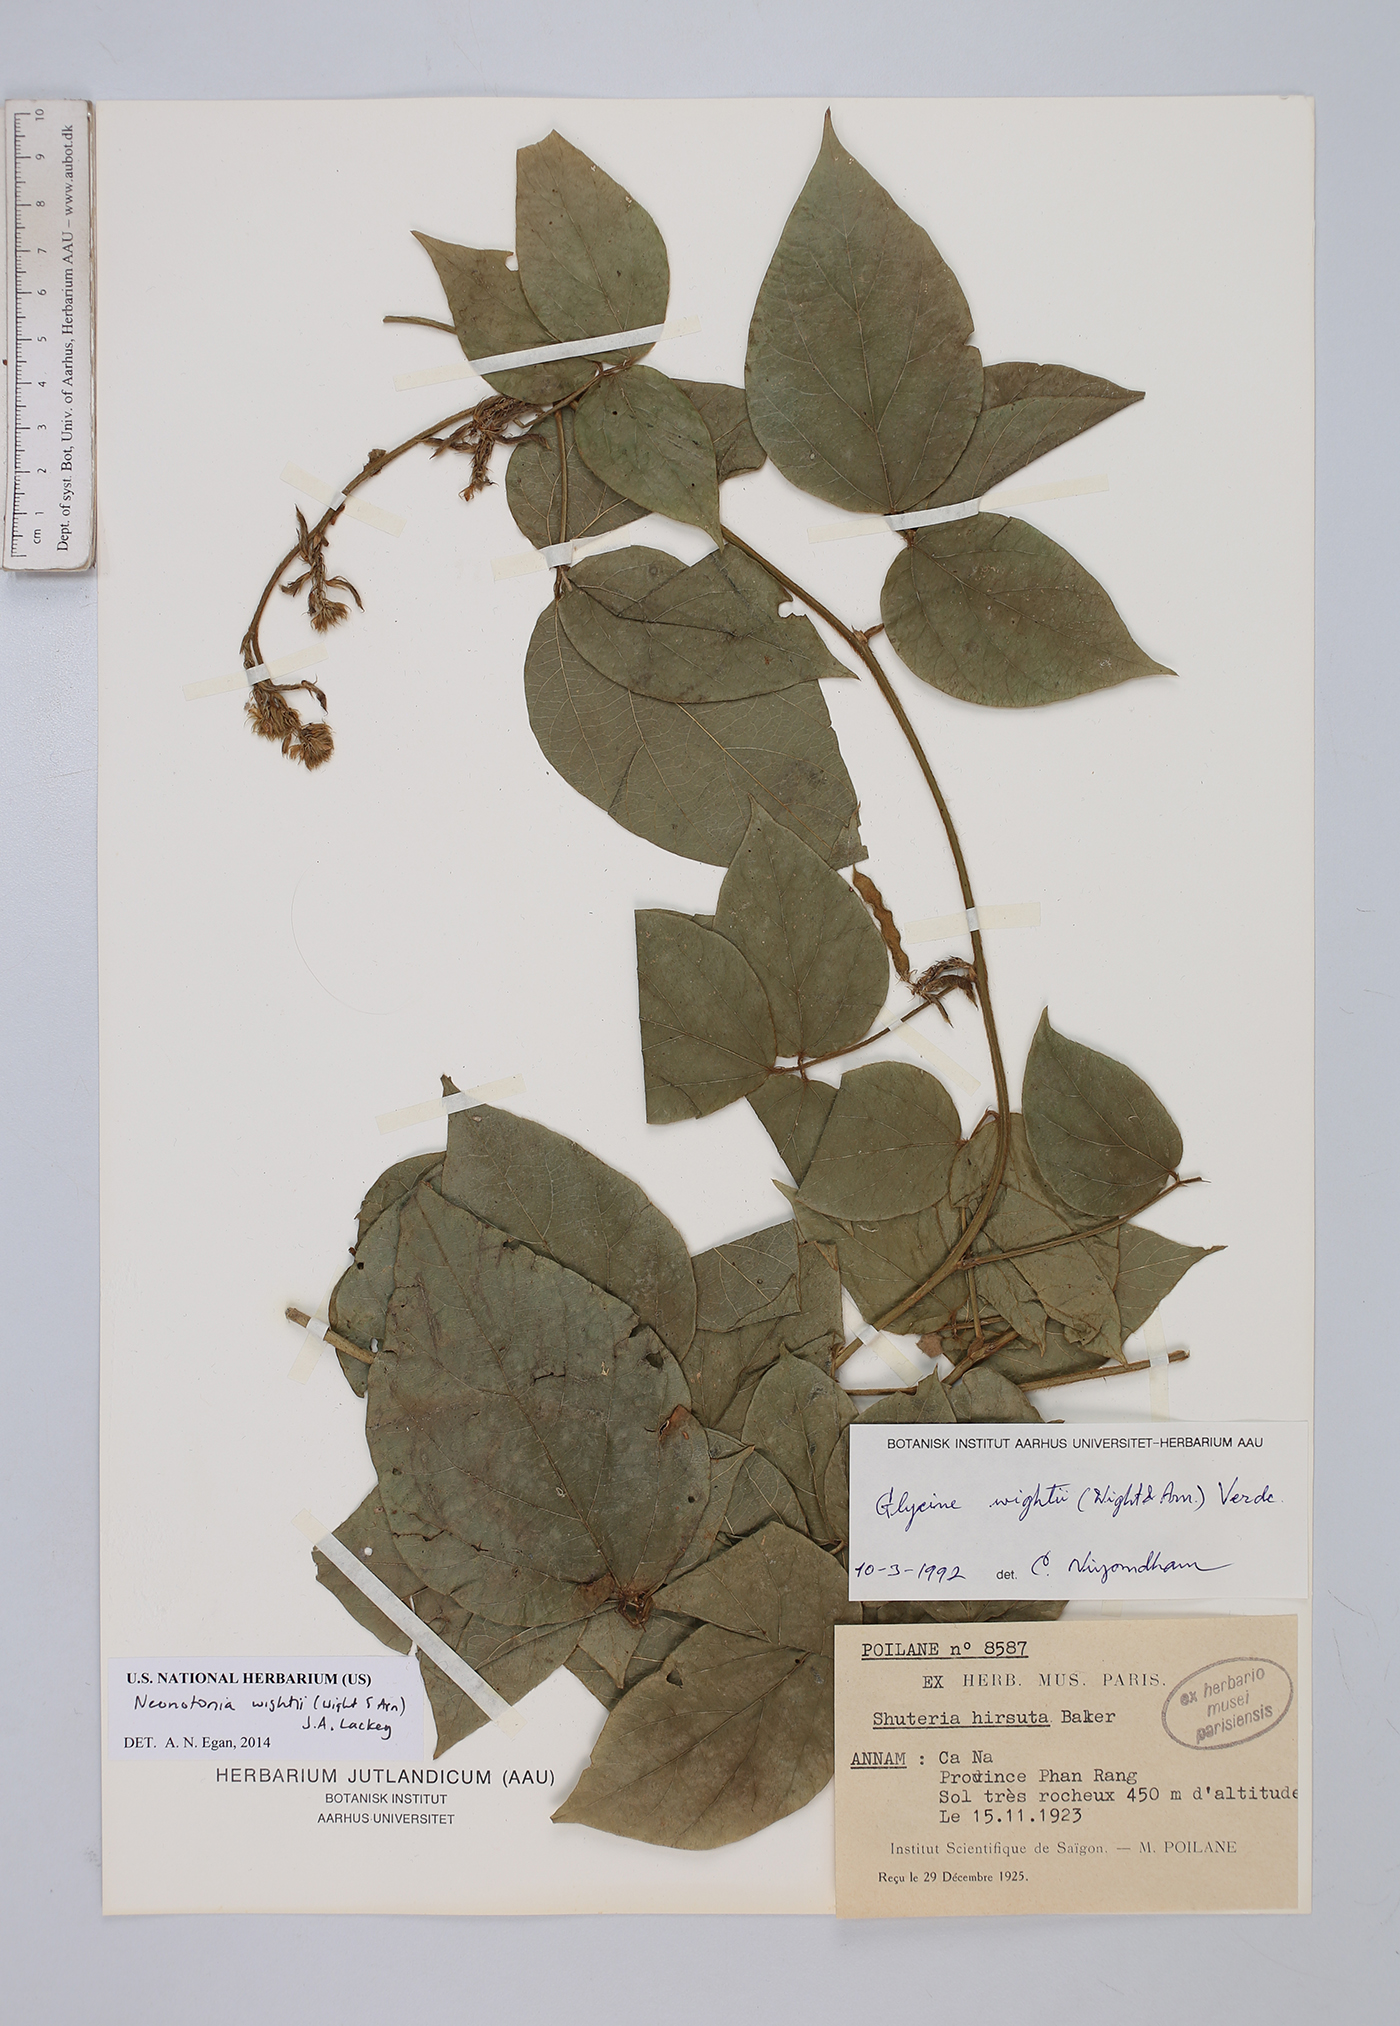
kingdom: Plantae
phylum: Tracheophyta
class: Magnoliopsida
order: Fabales
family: Fabaceae
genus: Neonotonia
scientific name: Neonotonia wightii
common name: Perennial soybean
